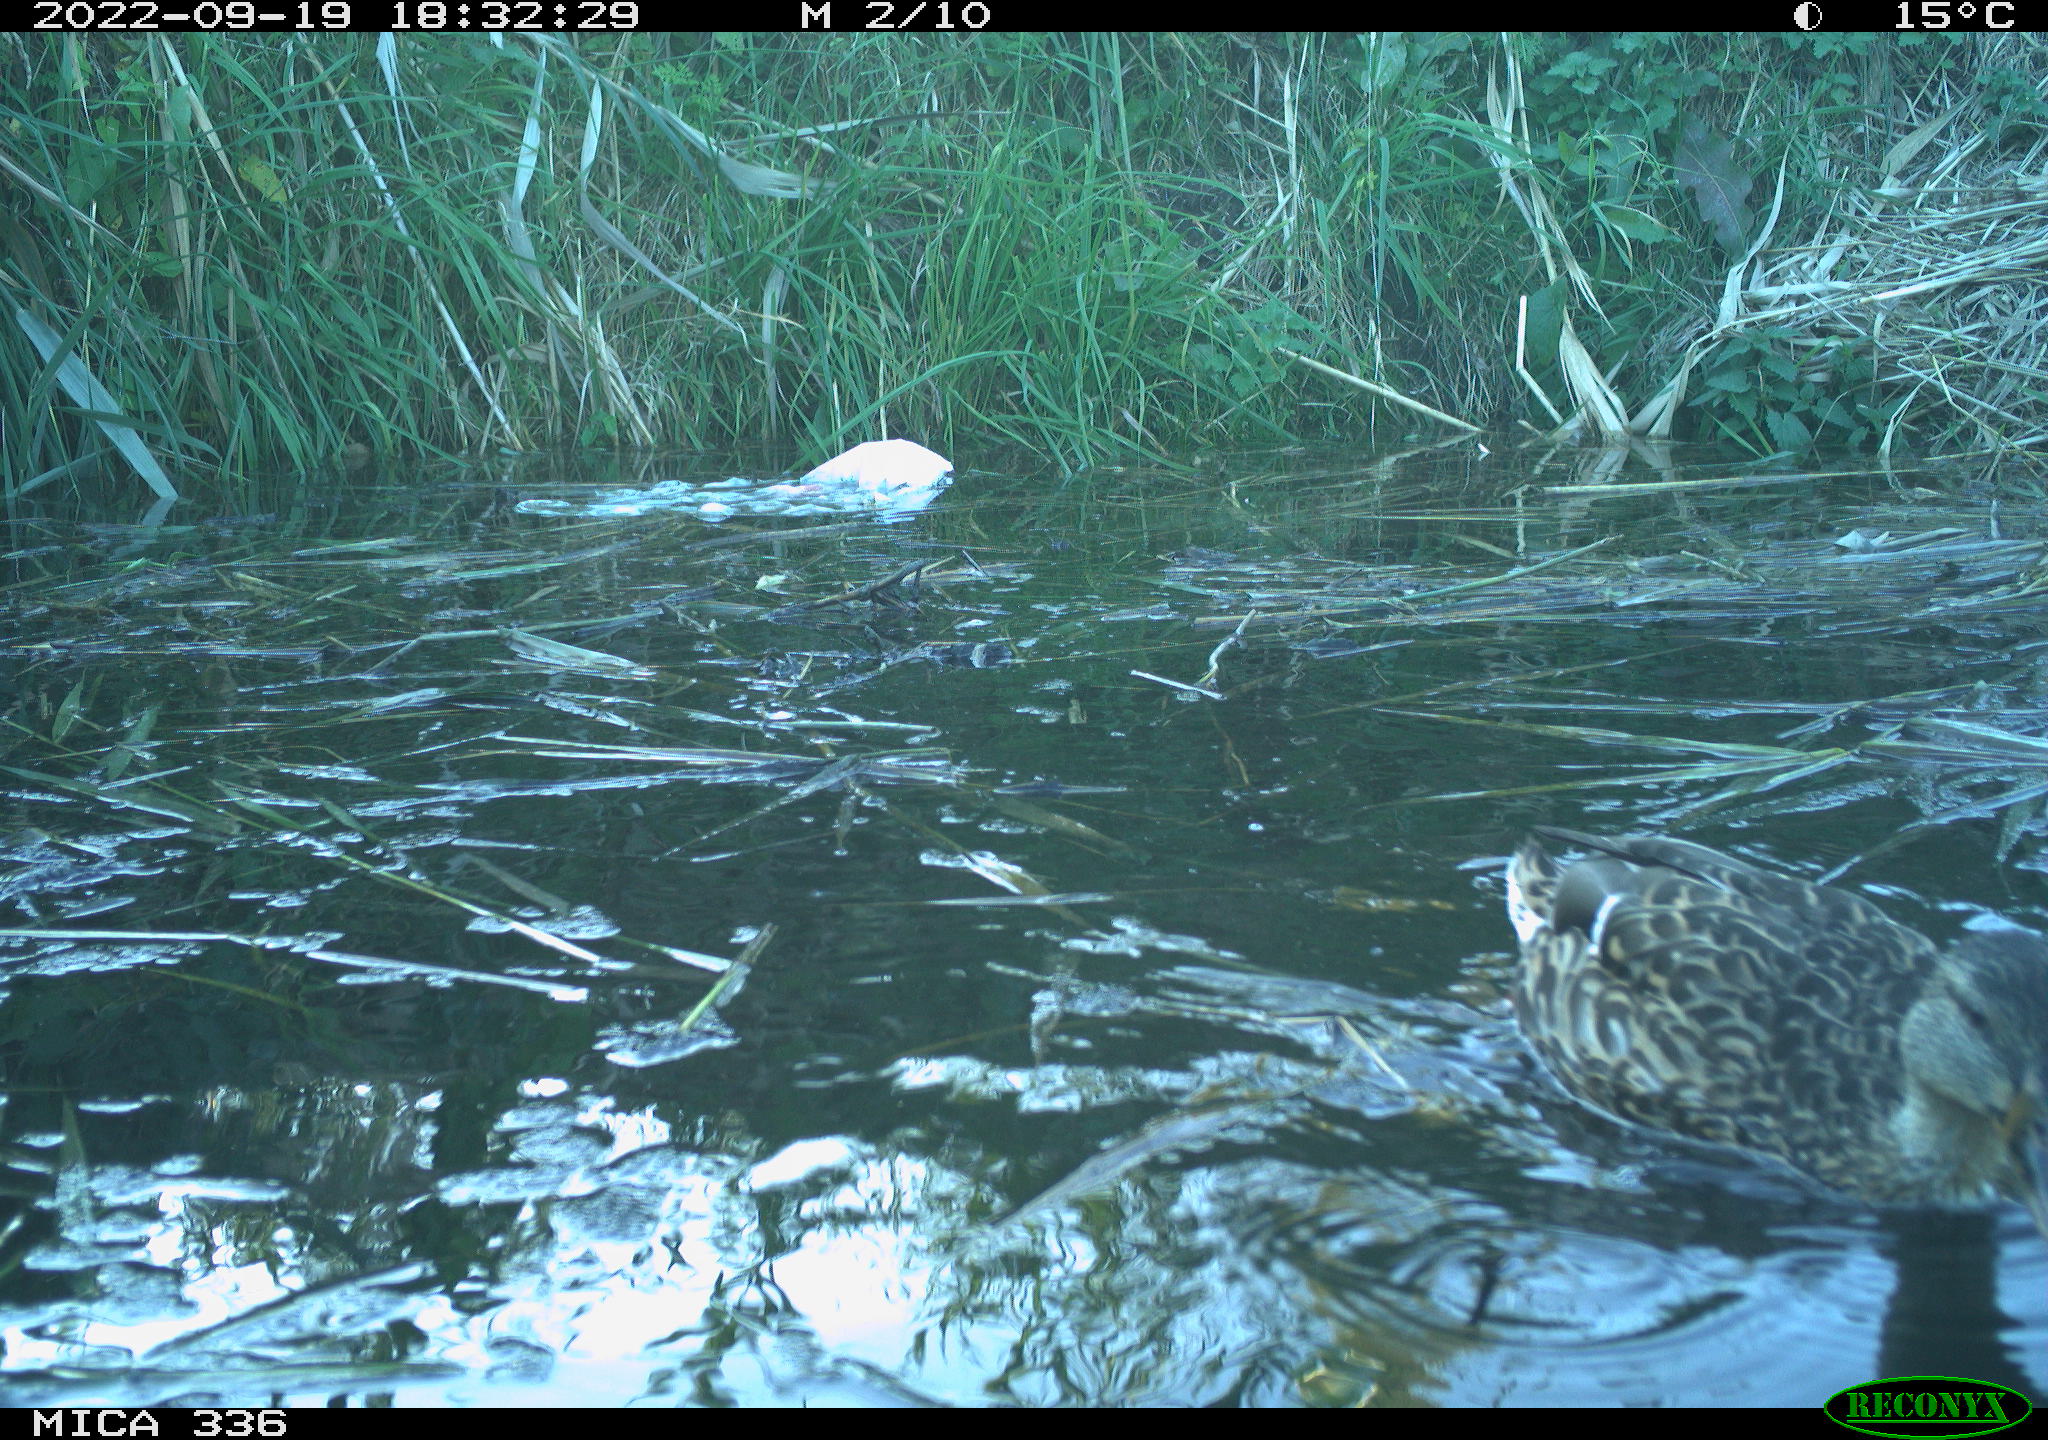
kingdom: Animalia
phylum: Chordata
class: Aves
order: Anseriformes
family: Anatidae
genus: Anas
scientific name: Anas
